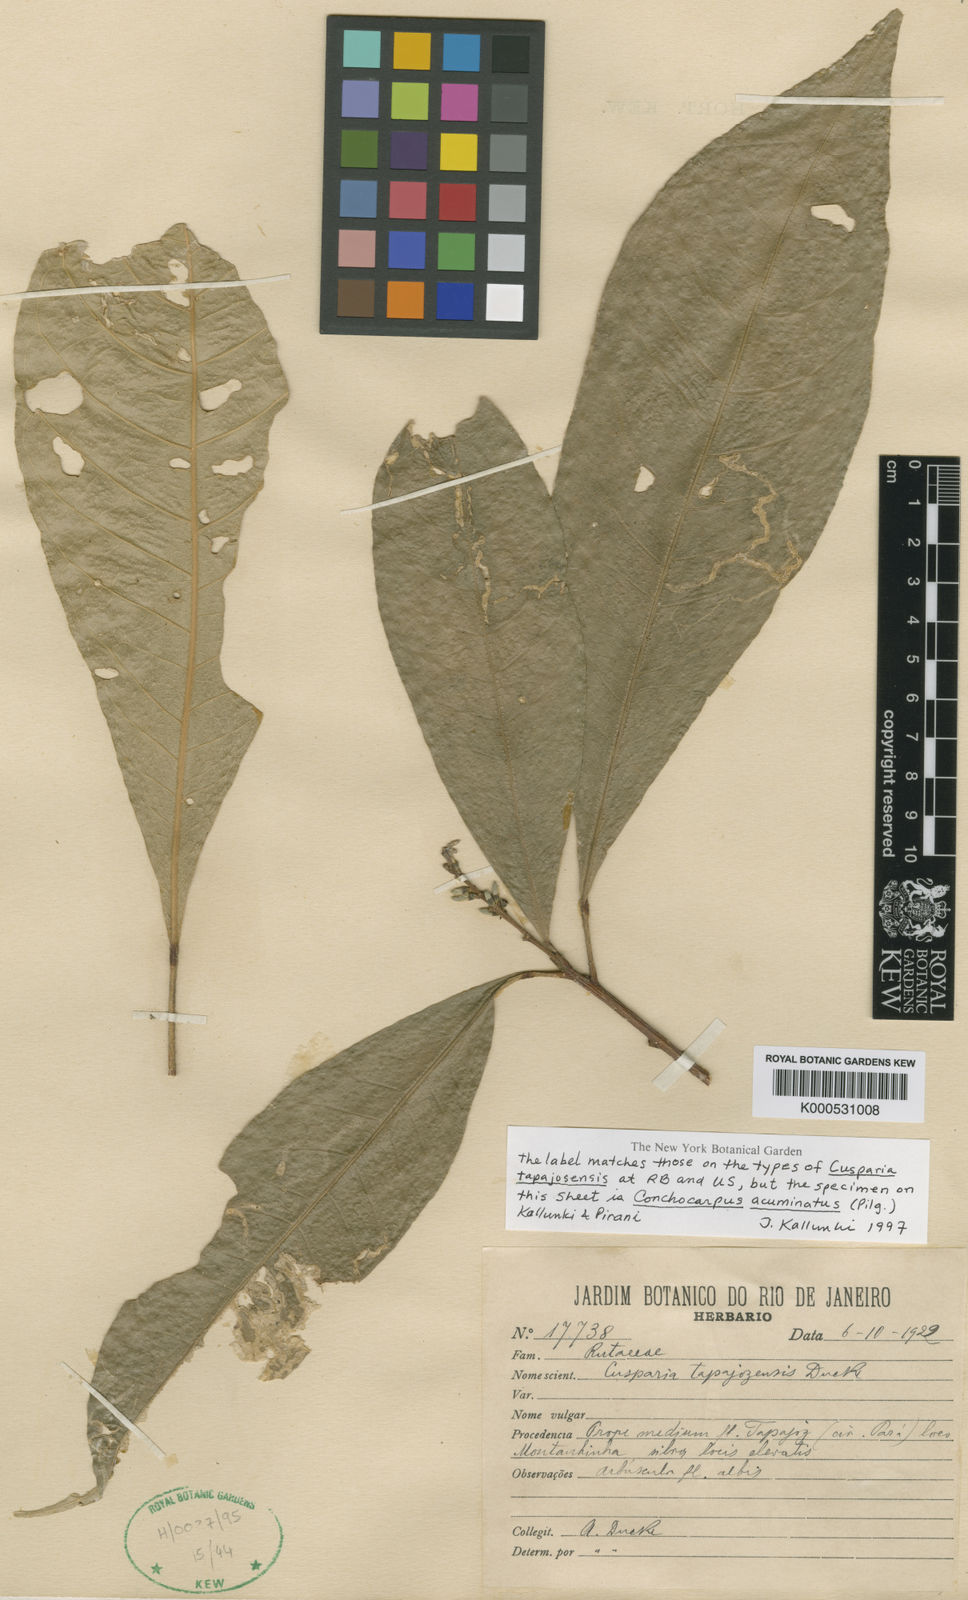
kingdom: Plantae
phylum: Tracheophyta
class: Magnoliopsida
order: Sapindales
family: Rutaceae
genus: Conchocarpus
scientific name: Conchocarpus acuminatus
